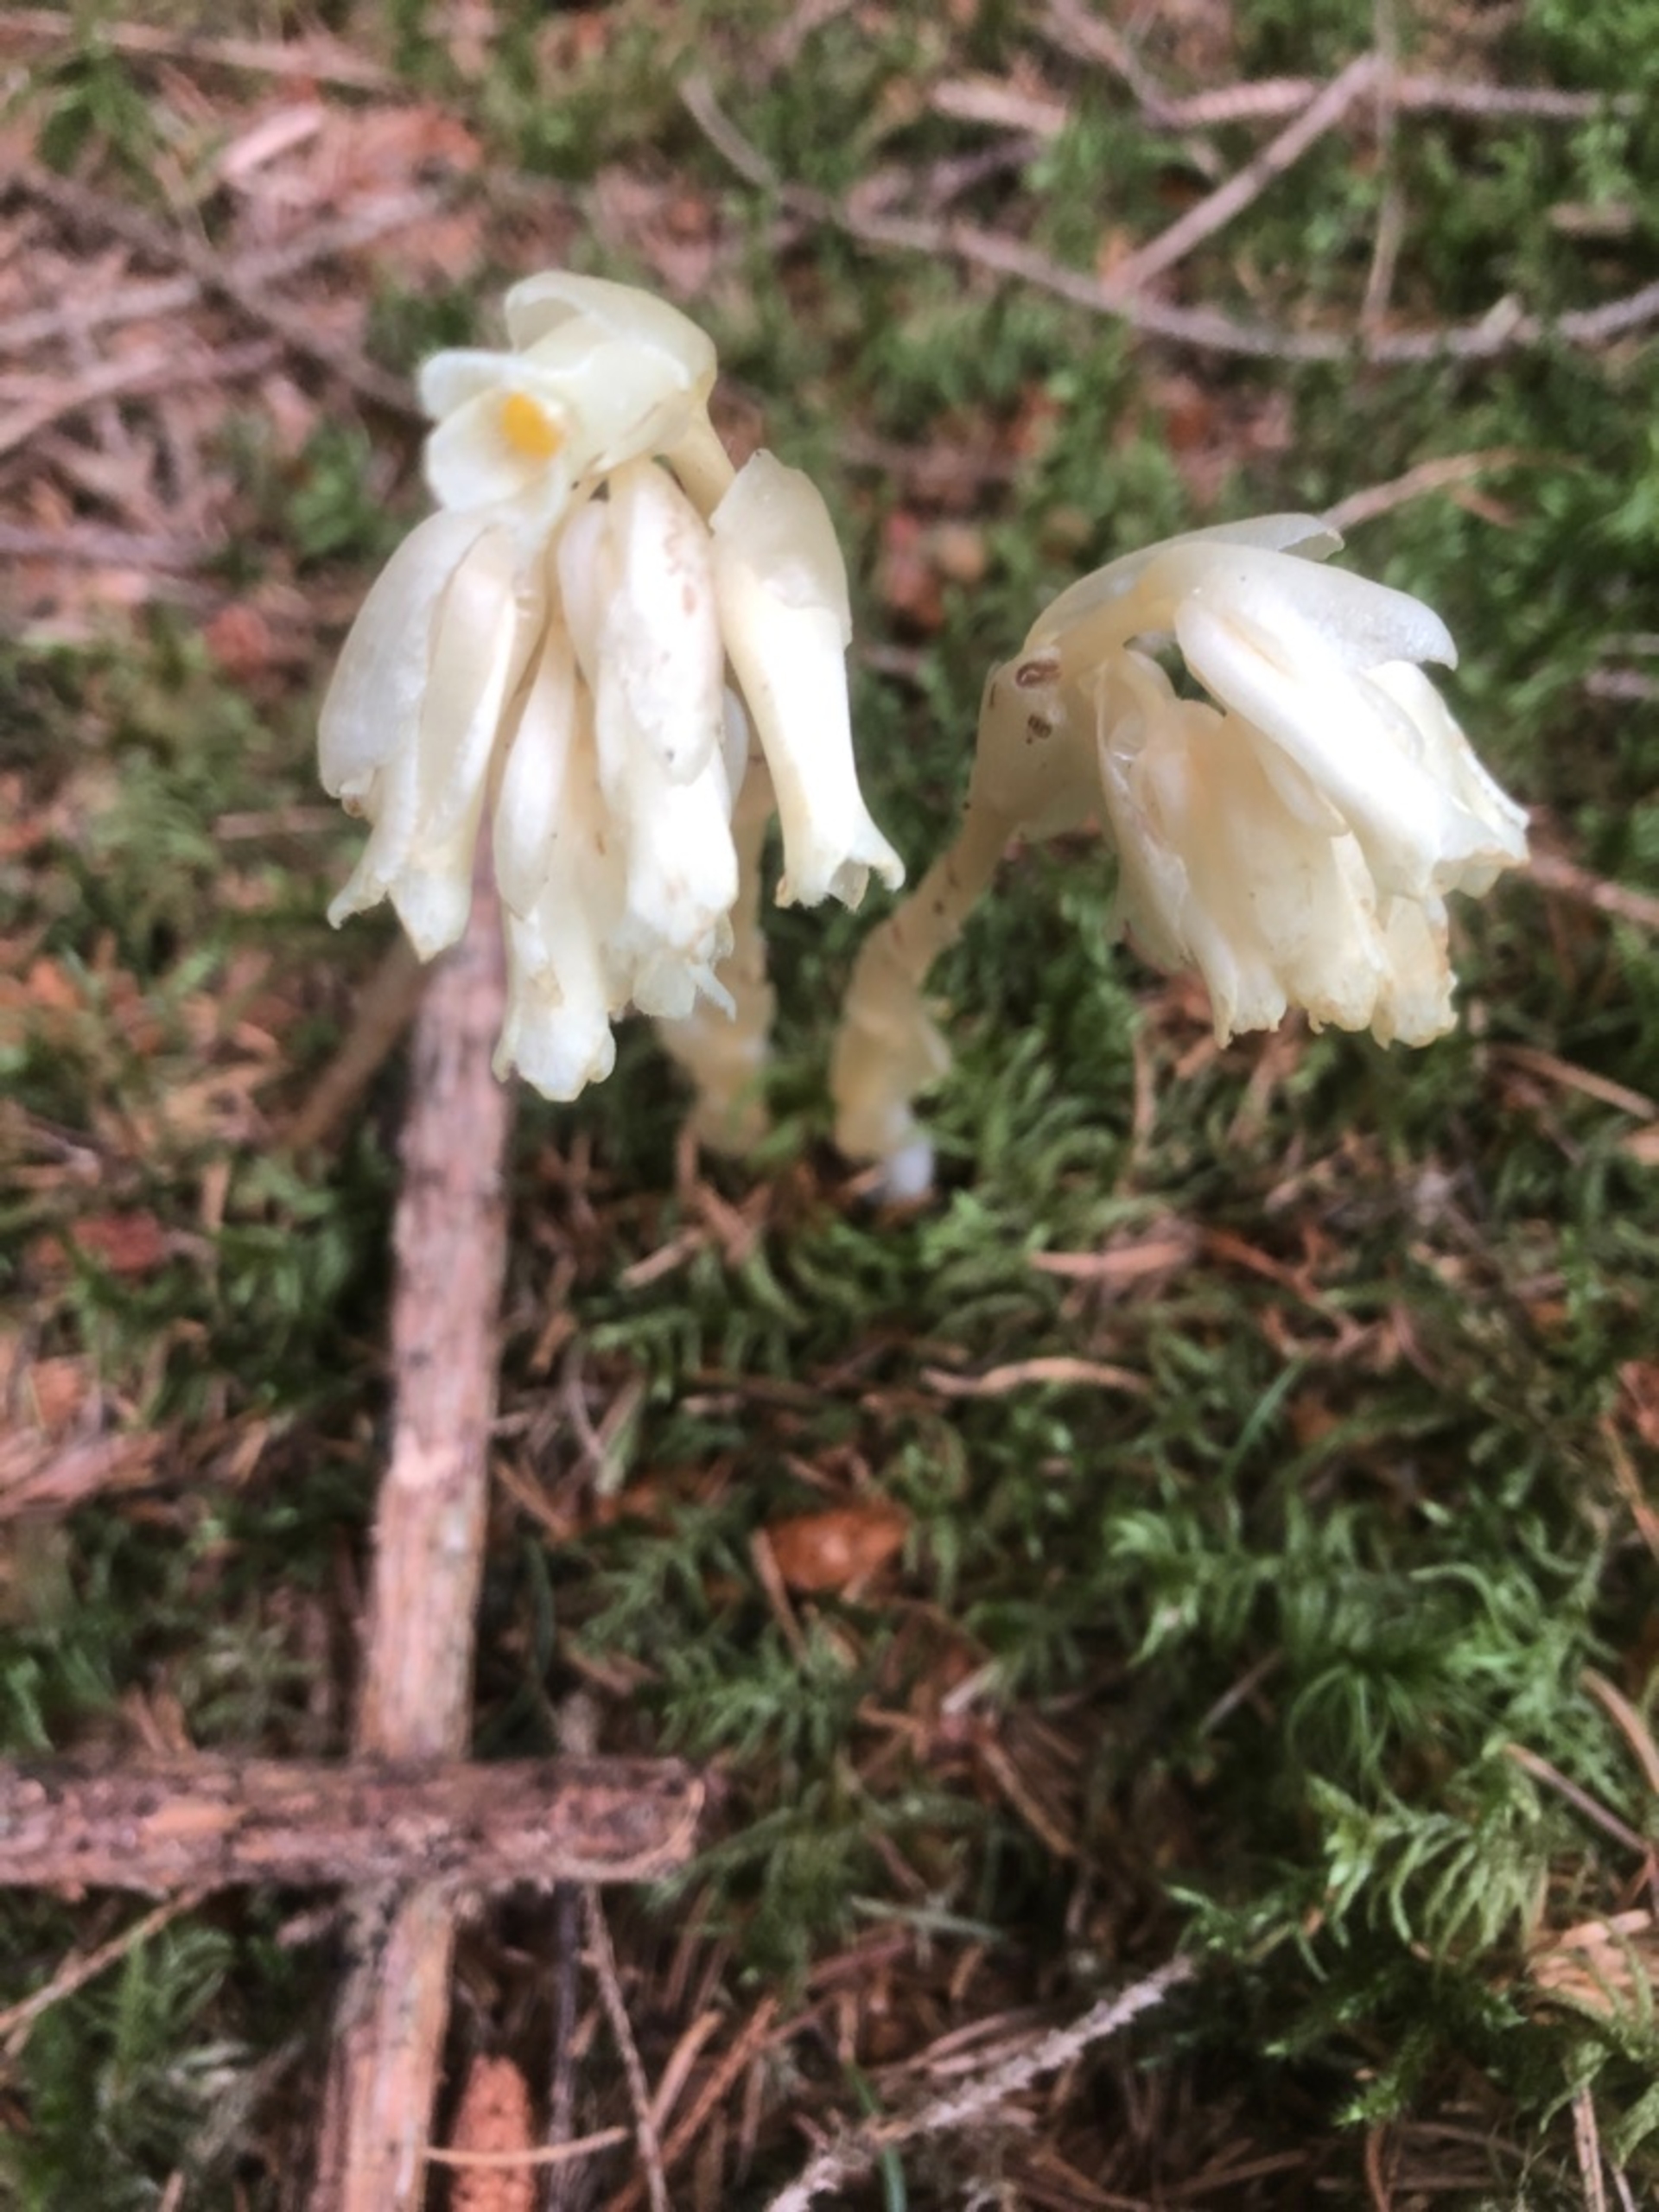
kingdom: Plantae
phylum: Tracheophyta
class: Magnoliopsida
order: Ericales
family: Ericaceae
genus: Hypopitys
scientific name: Hypopitys monotropa
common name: Snylterod
